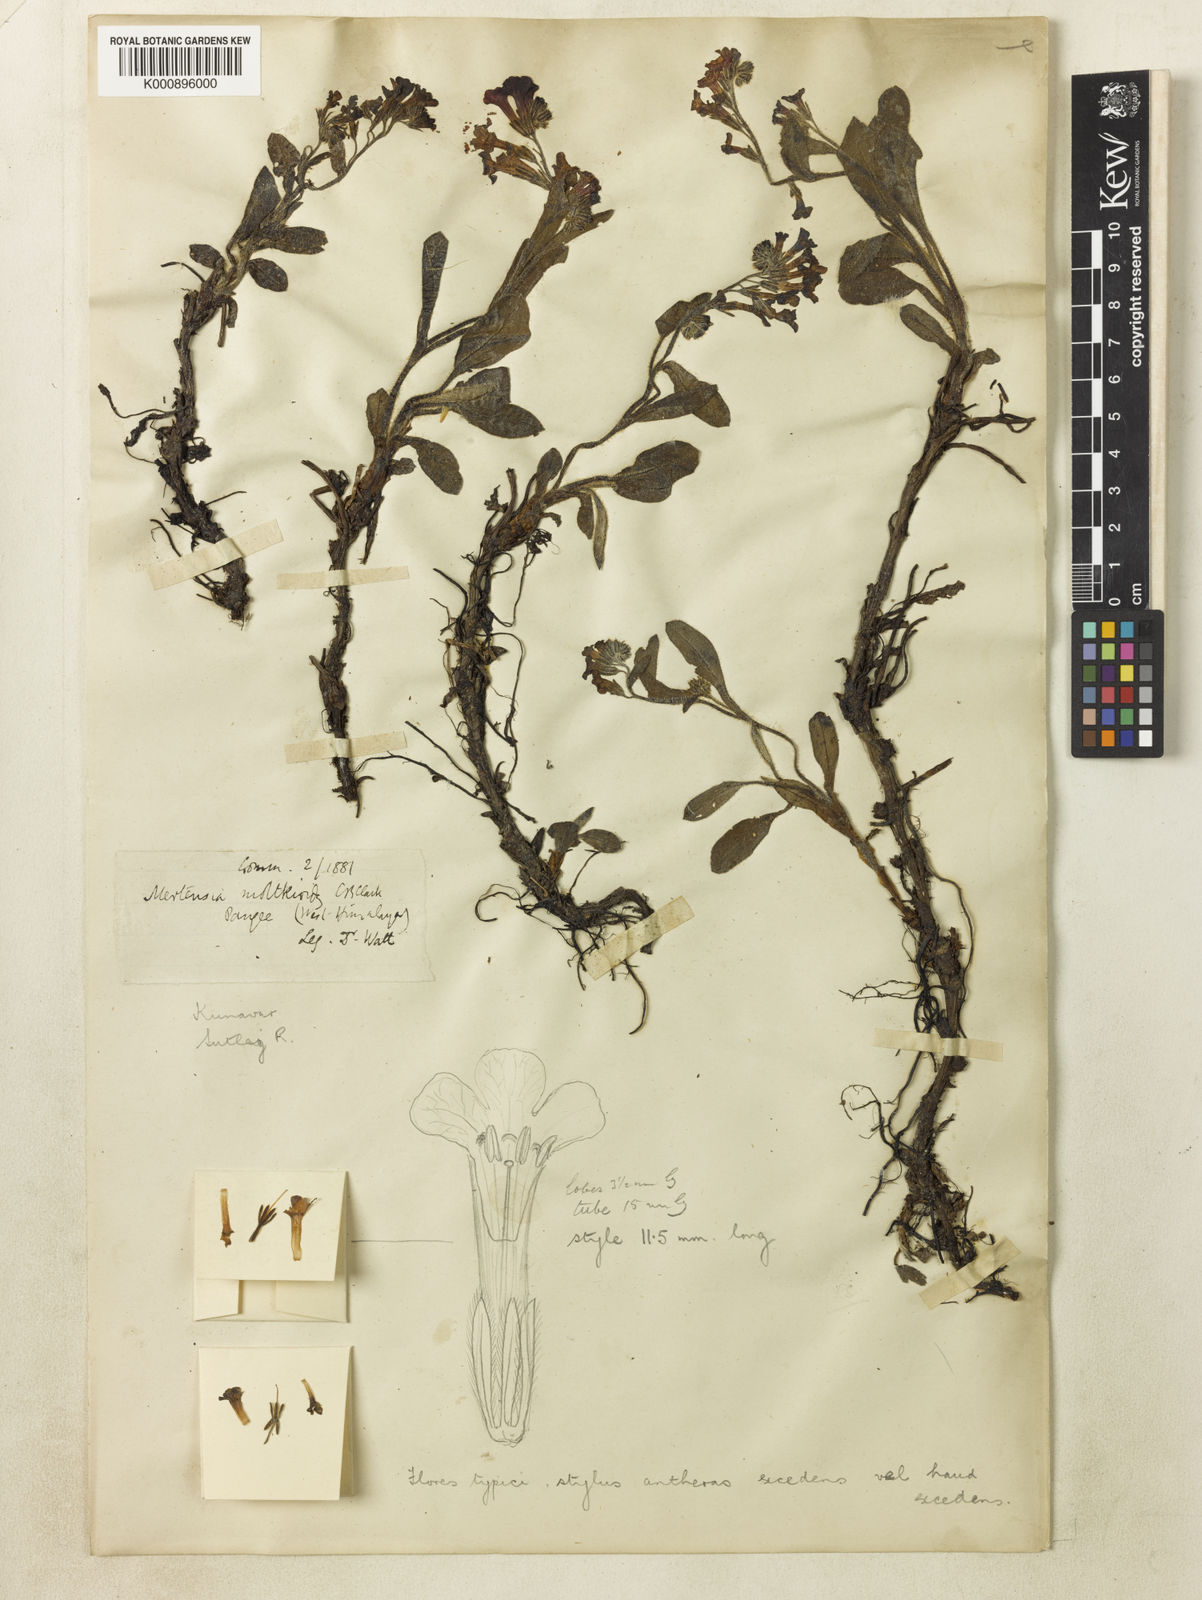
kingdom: Plantae
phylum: Tracheophyta
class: Magnoliopsida
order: Boraginales
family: Boraginaceae
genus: Decalepidanthus
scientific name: Decalepidanthus moltkioides
